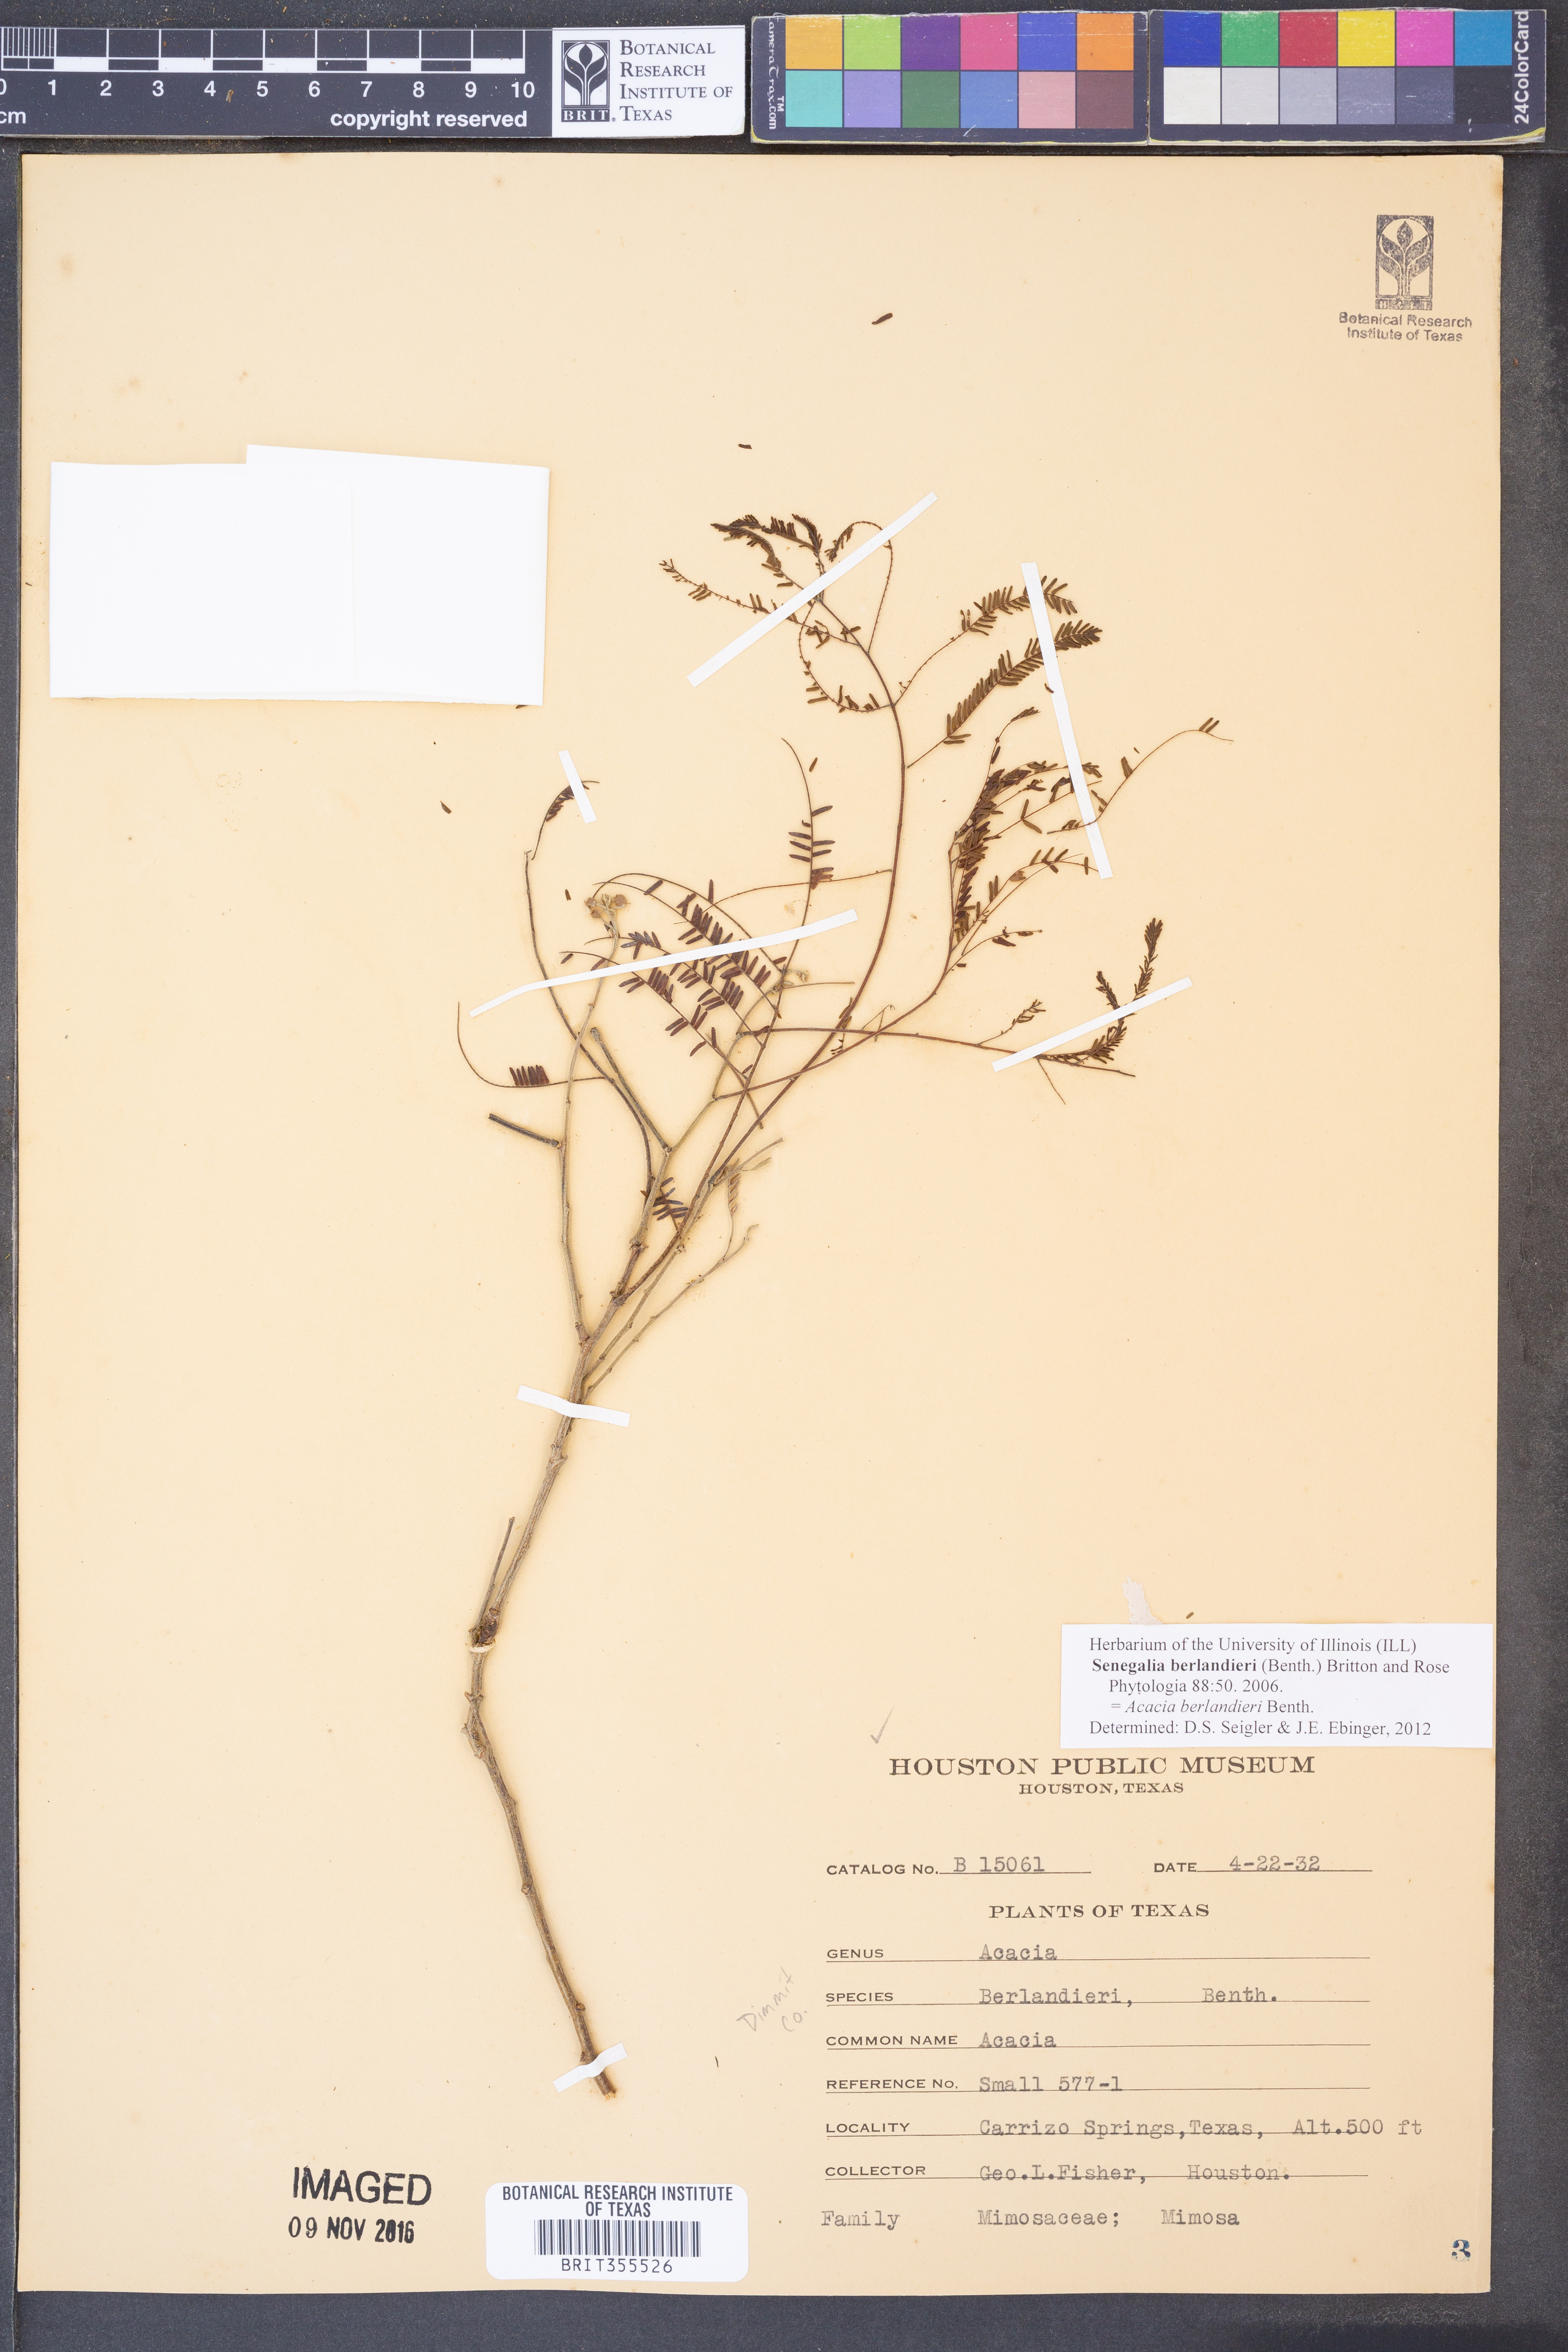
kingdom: Plantae
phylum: Tracheophyta
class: Magnoliopsida
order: Fabales
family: Fabaceae
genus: Senegalia
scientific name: Senegalia berlandieri
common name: Berlandier acacia
